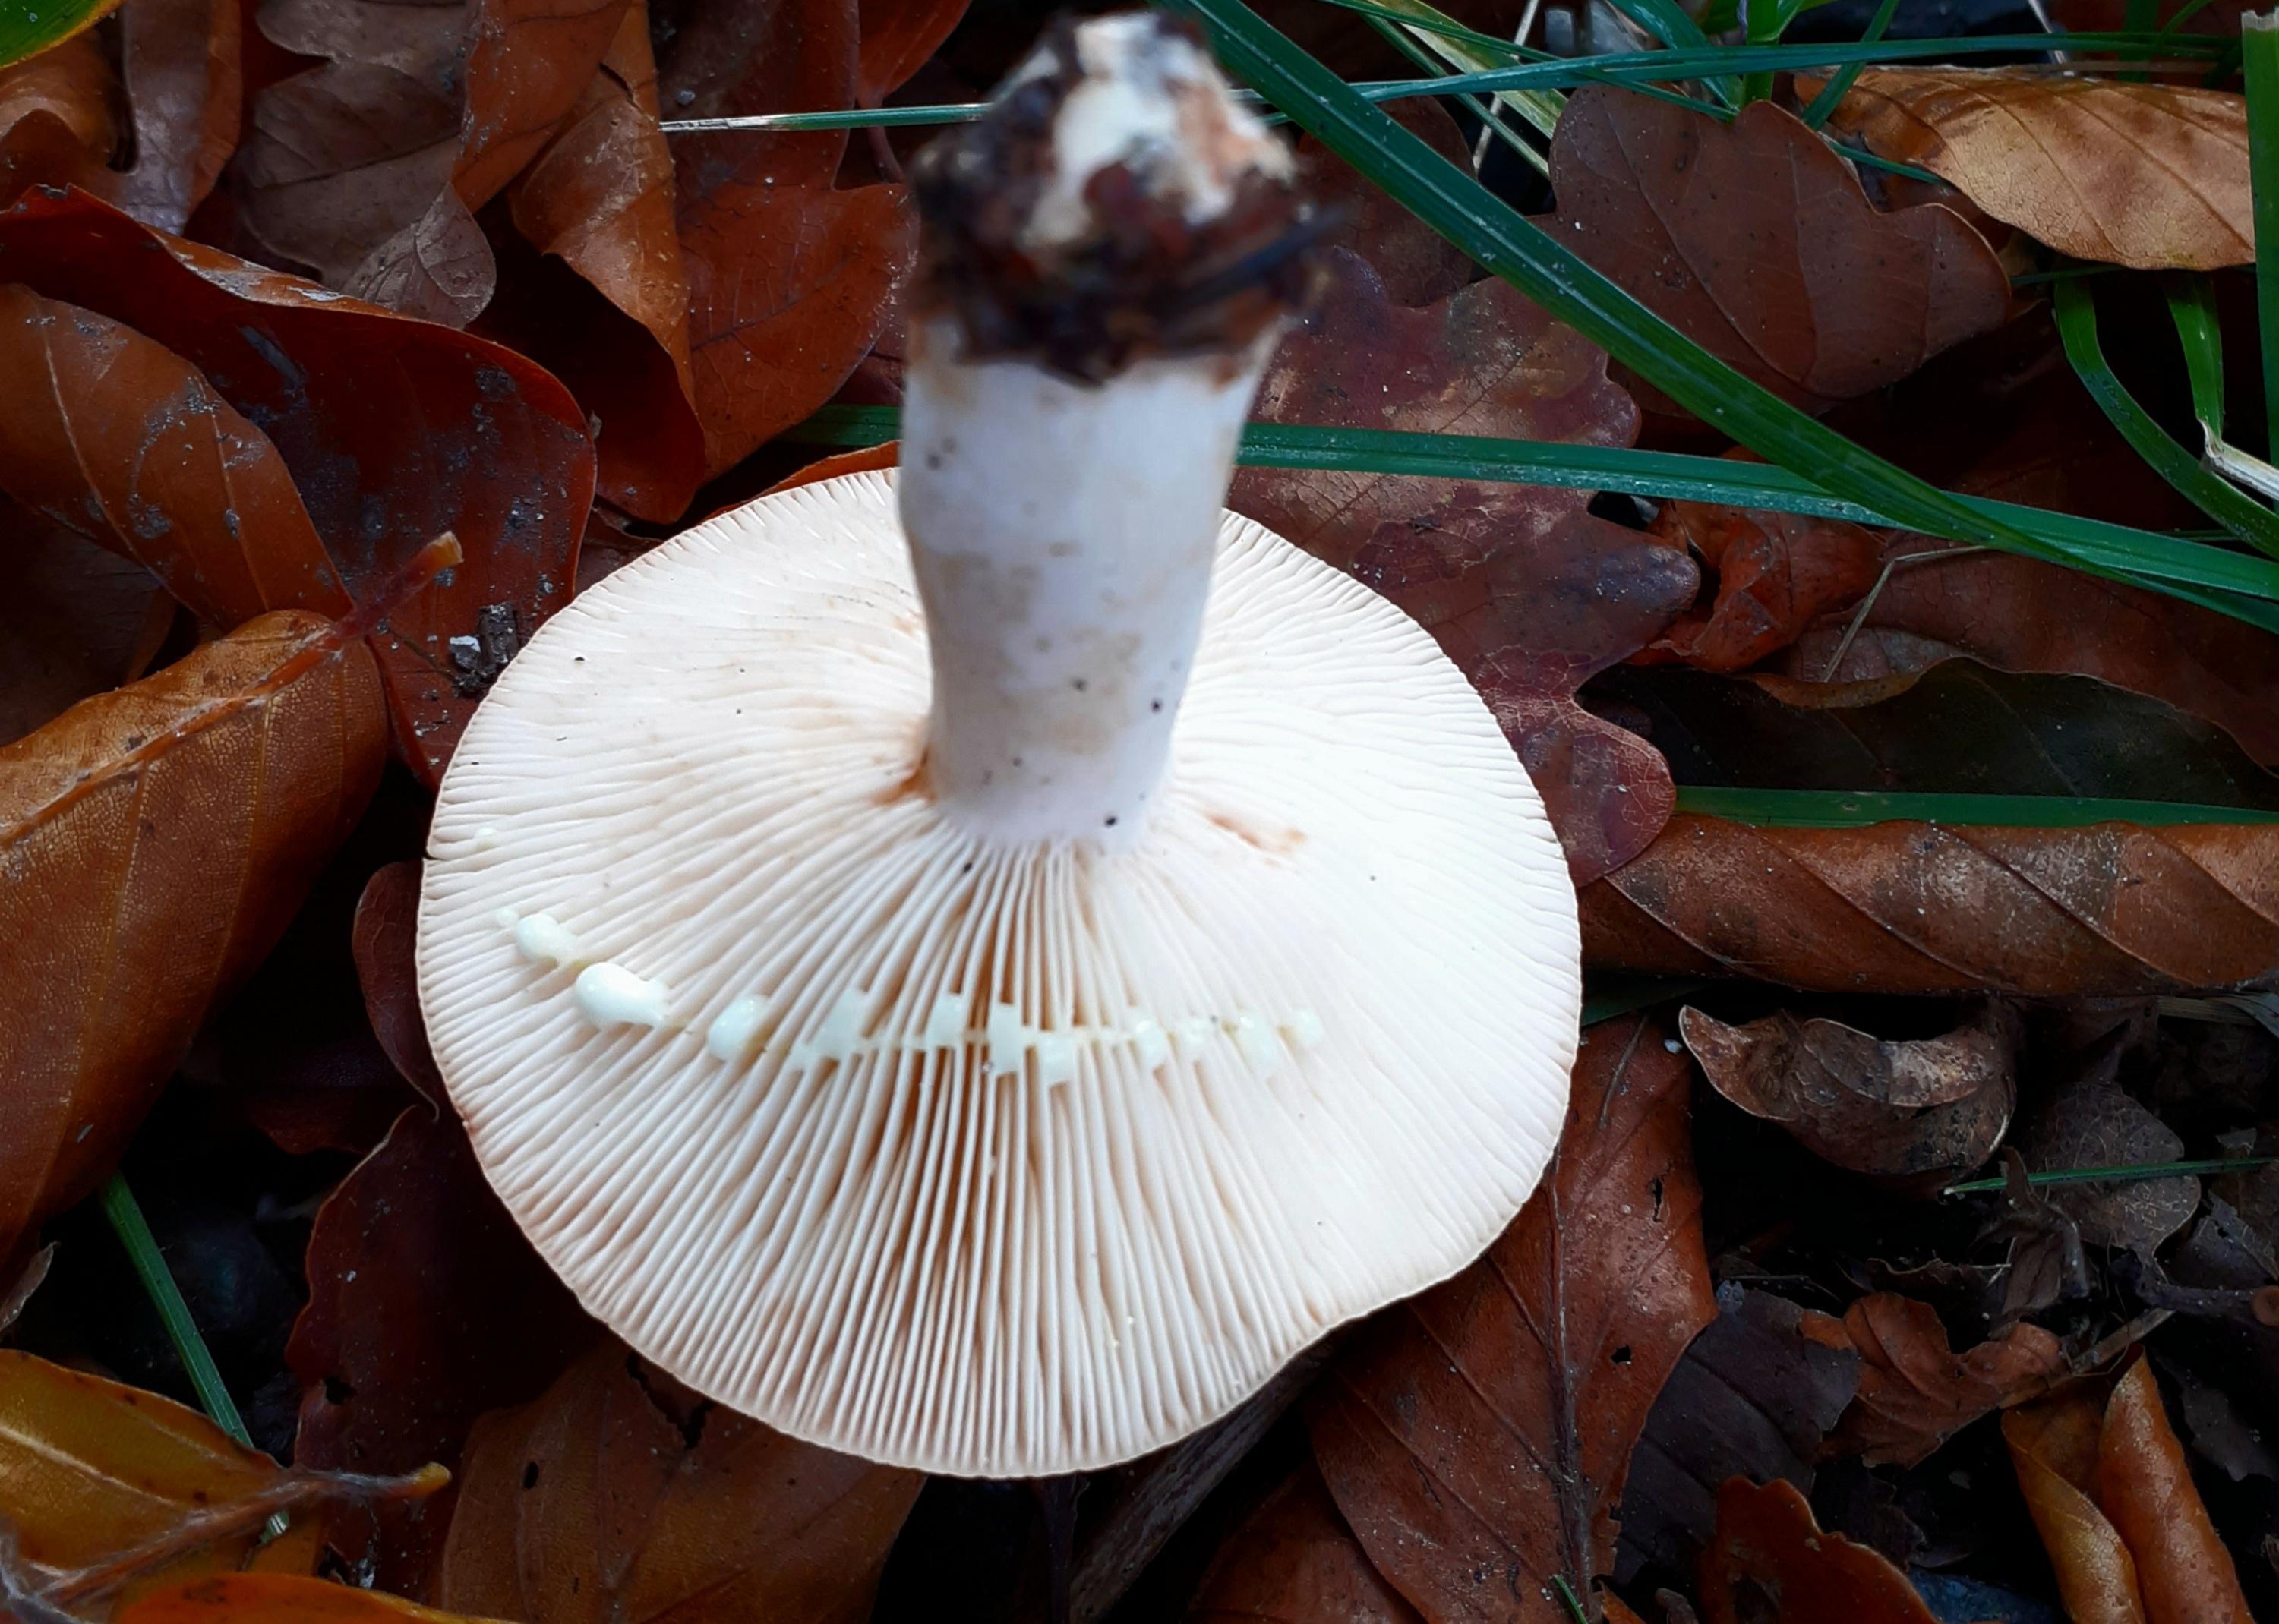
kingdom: Fungi
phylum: Basidiomycota
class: Agaricomycetes
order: Russulales
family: Russulaceae
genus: Lactarius
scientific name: Lactarius chrysorrheus
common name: svovlmælket mælkehat
